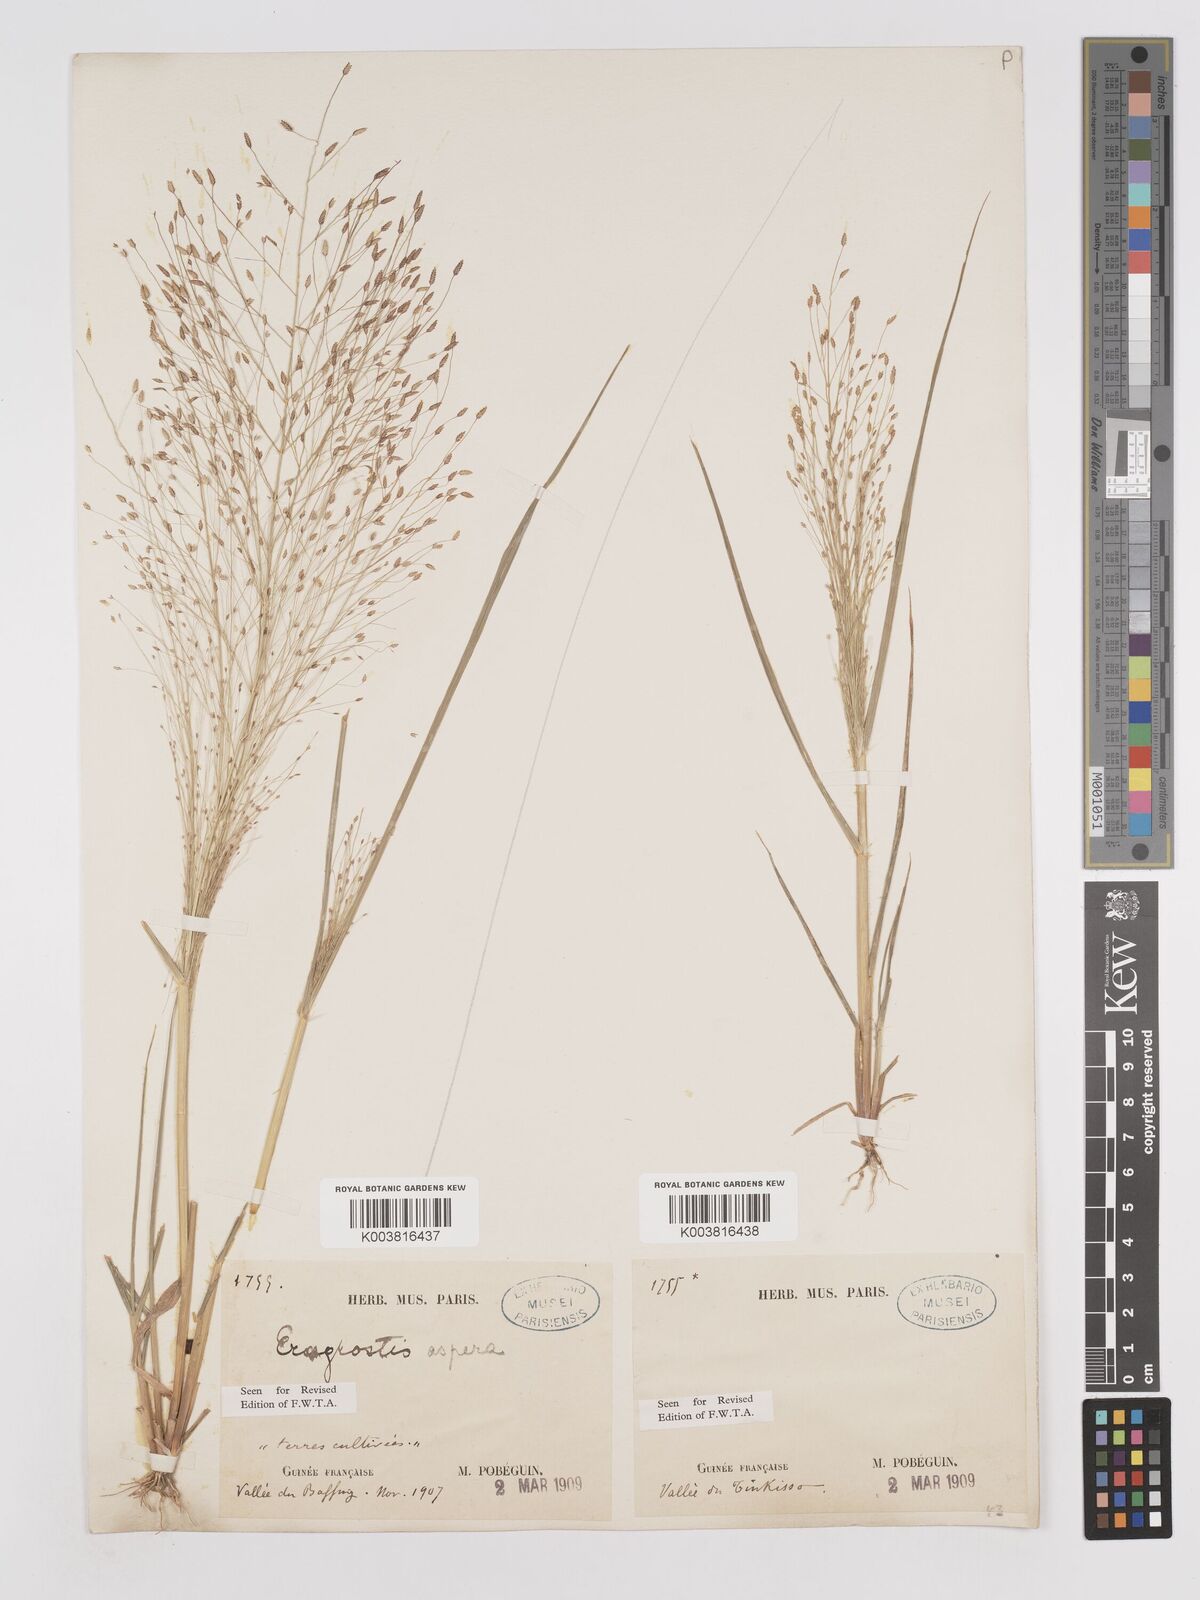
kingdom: Plantae
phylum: Tracheophyta
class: Liliopsida
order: Poales
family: Poaceae
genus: Eragrostis
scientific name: Eragrostis aspera
